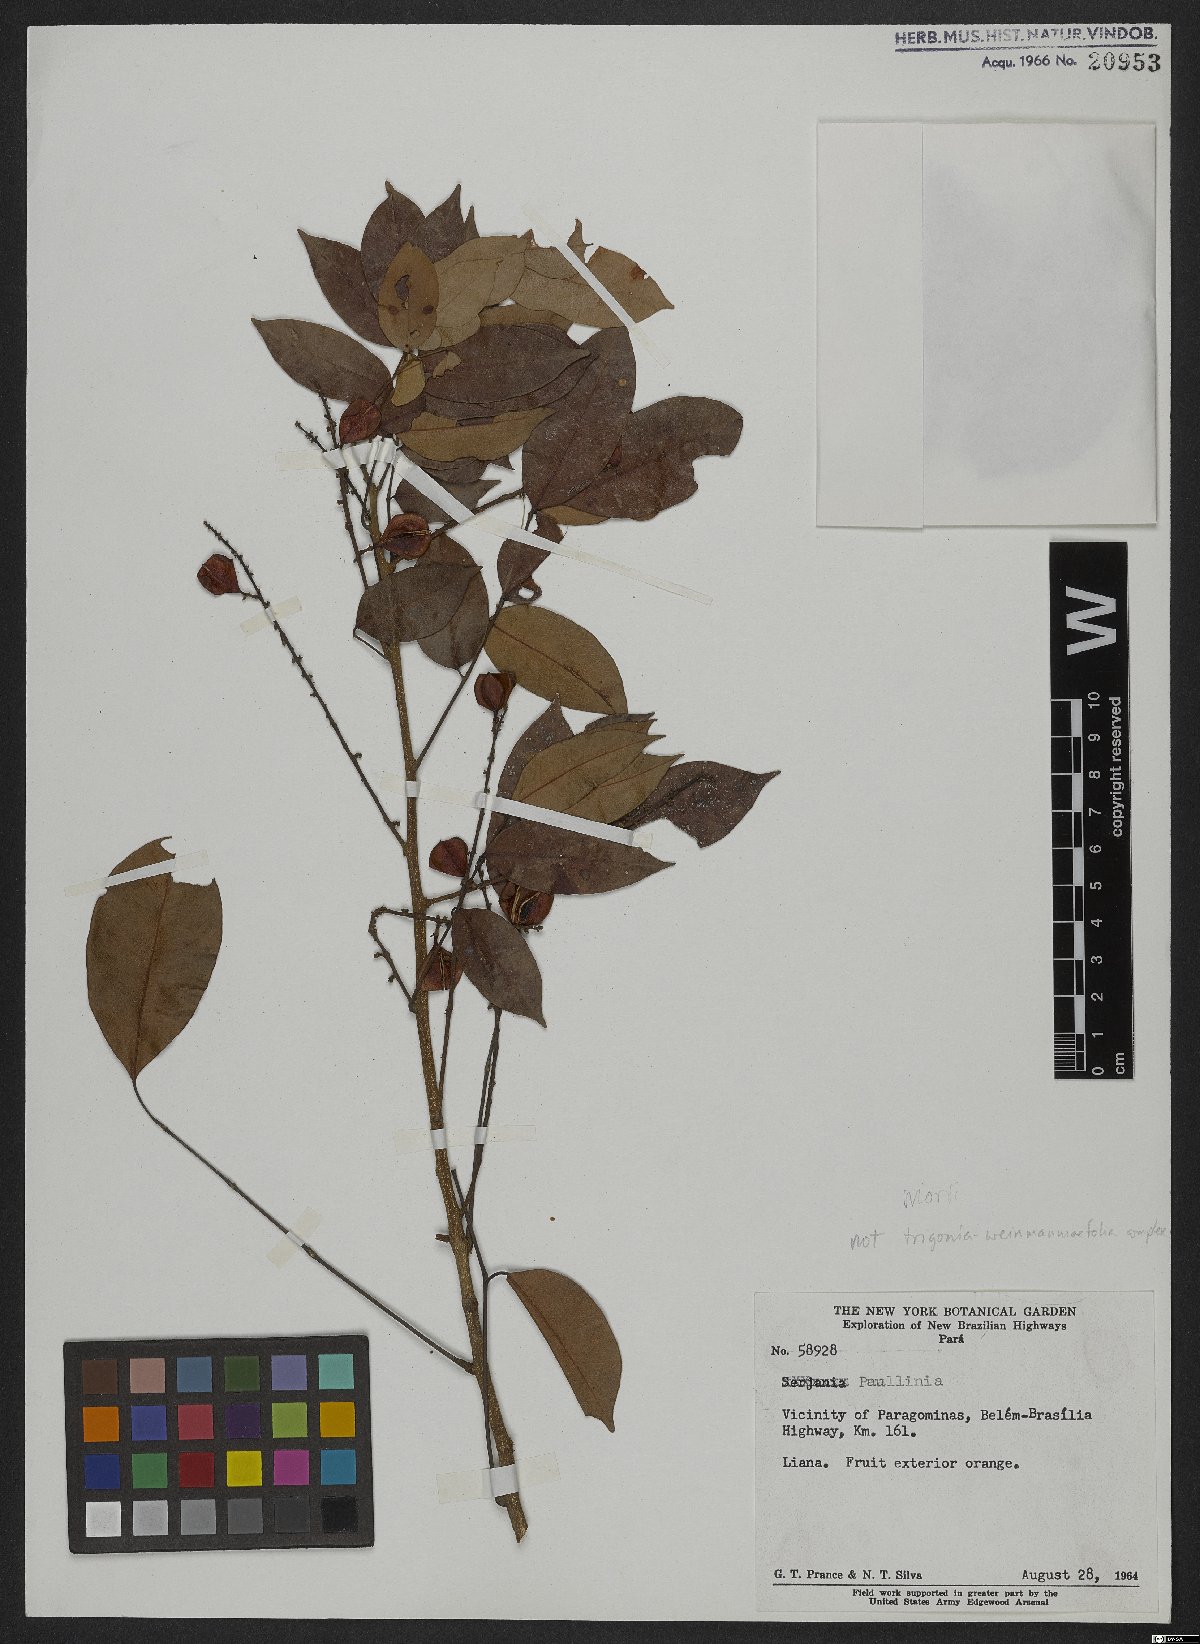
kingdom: Plantae
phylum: Tracheophyta
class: Magnoliopsida
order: Sapindales
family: Sapindaceae
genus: Paullinia
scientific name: Paullinia
